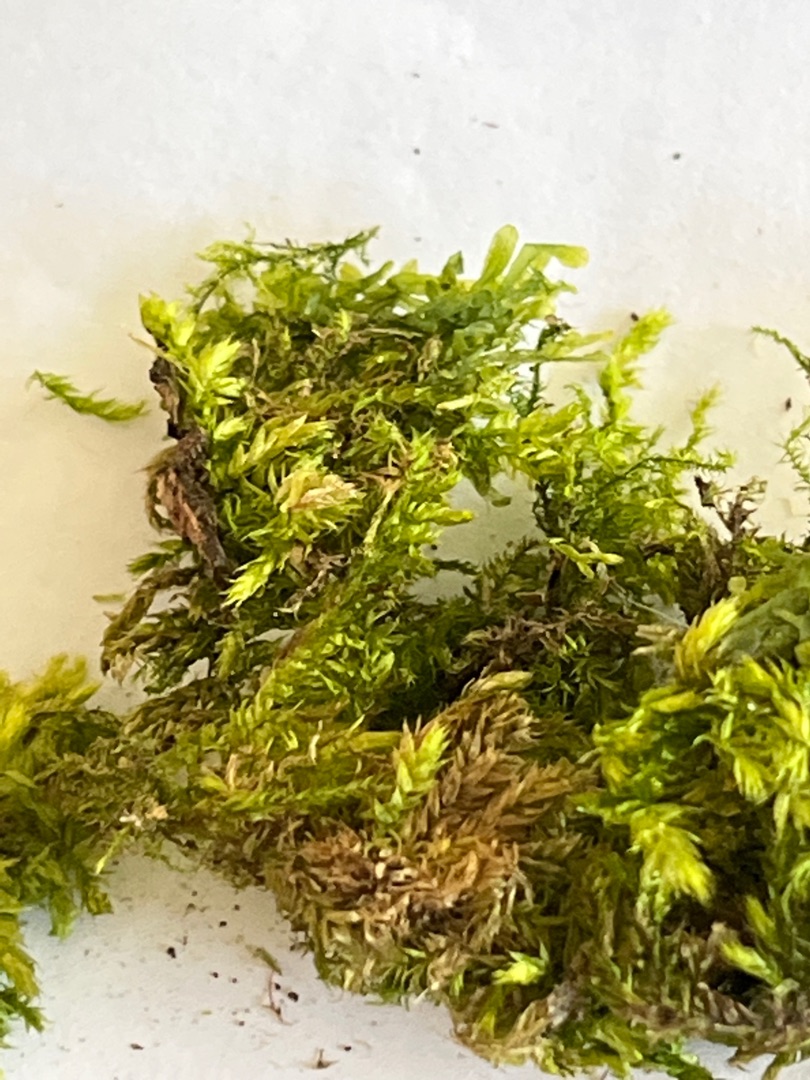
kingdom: Plantae
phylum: Bryophyta
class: Bryopsida
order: Hypnales
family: Brachytheciaceae
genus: Brachythecium
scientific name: Brachythecium rutabulum
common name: Almindelig kortkapsel
